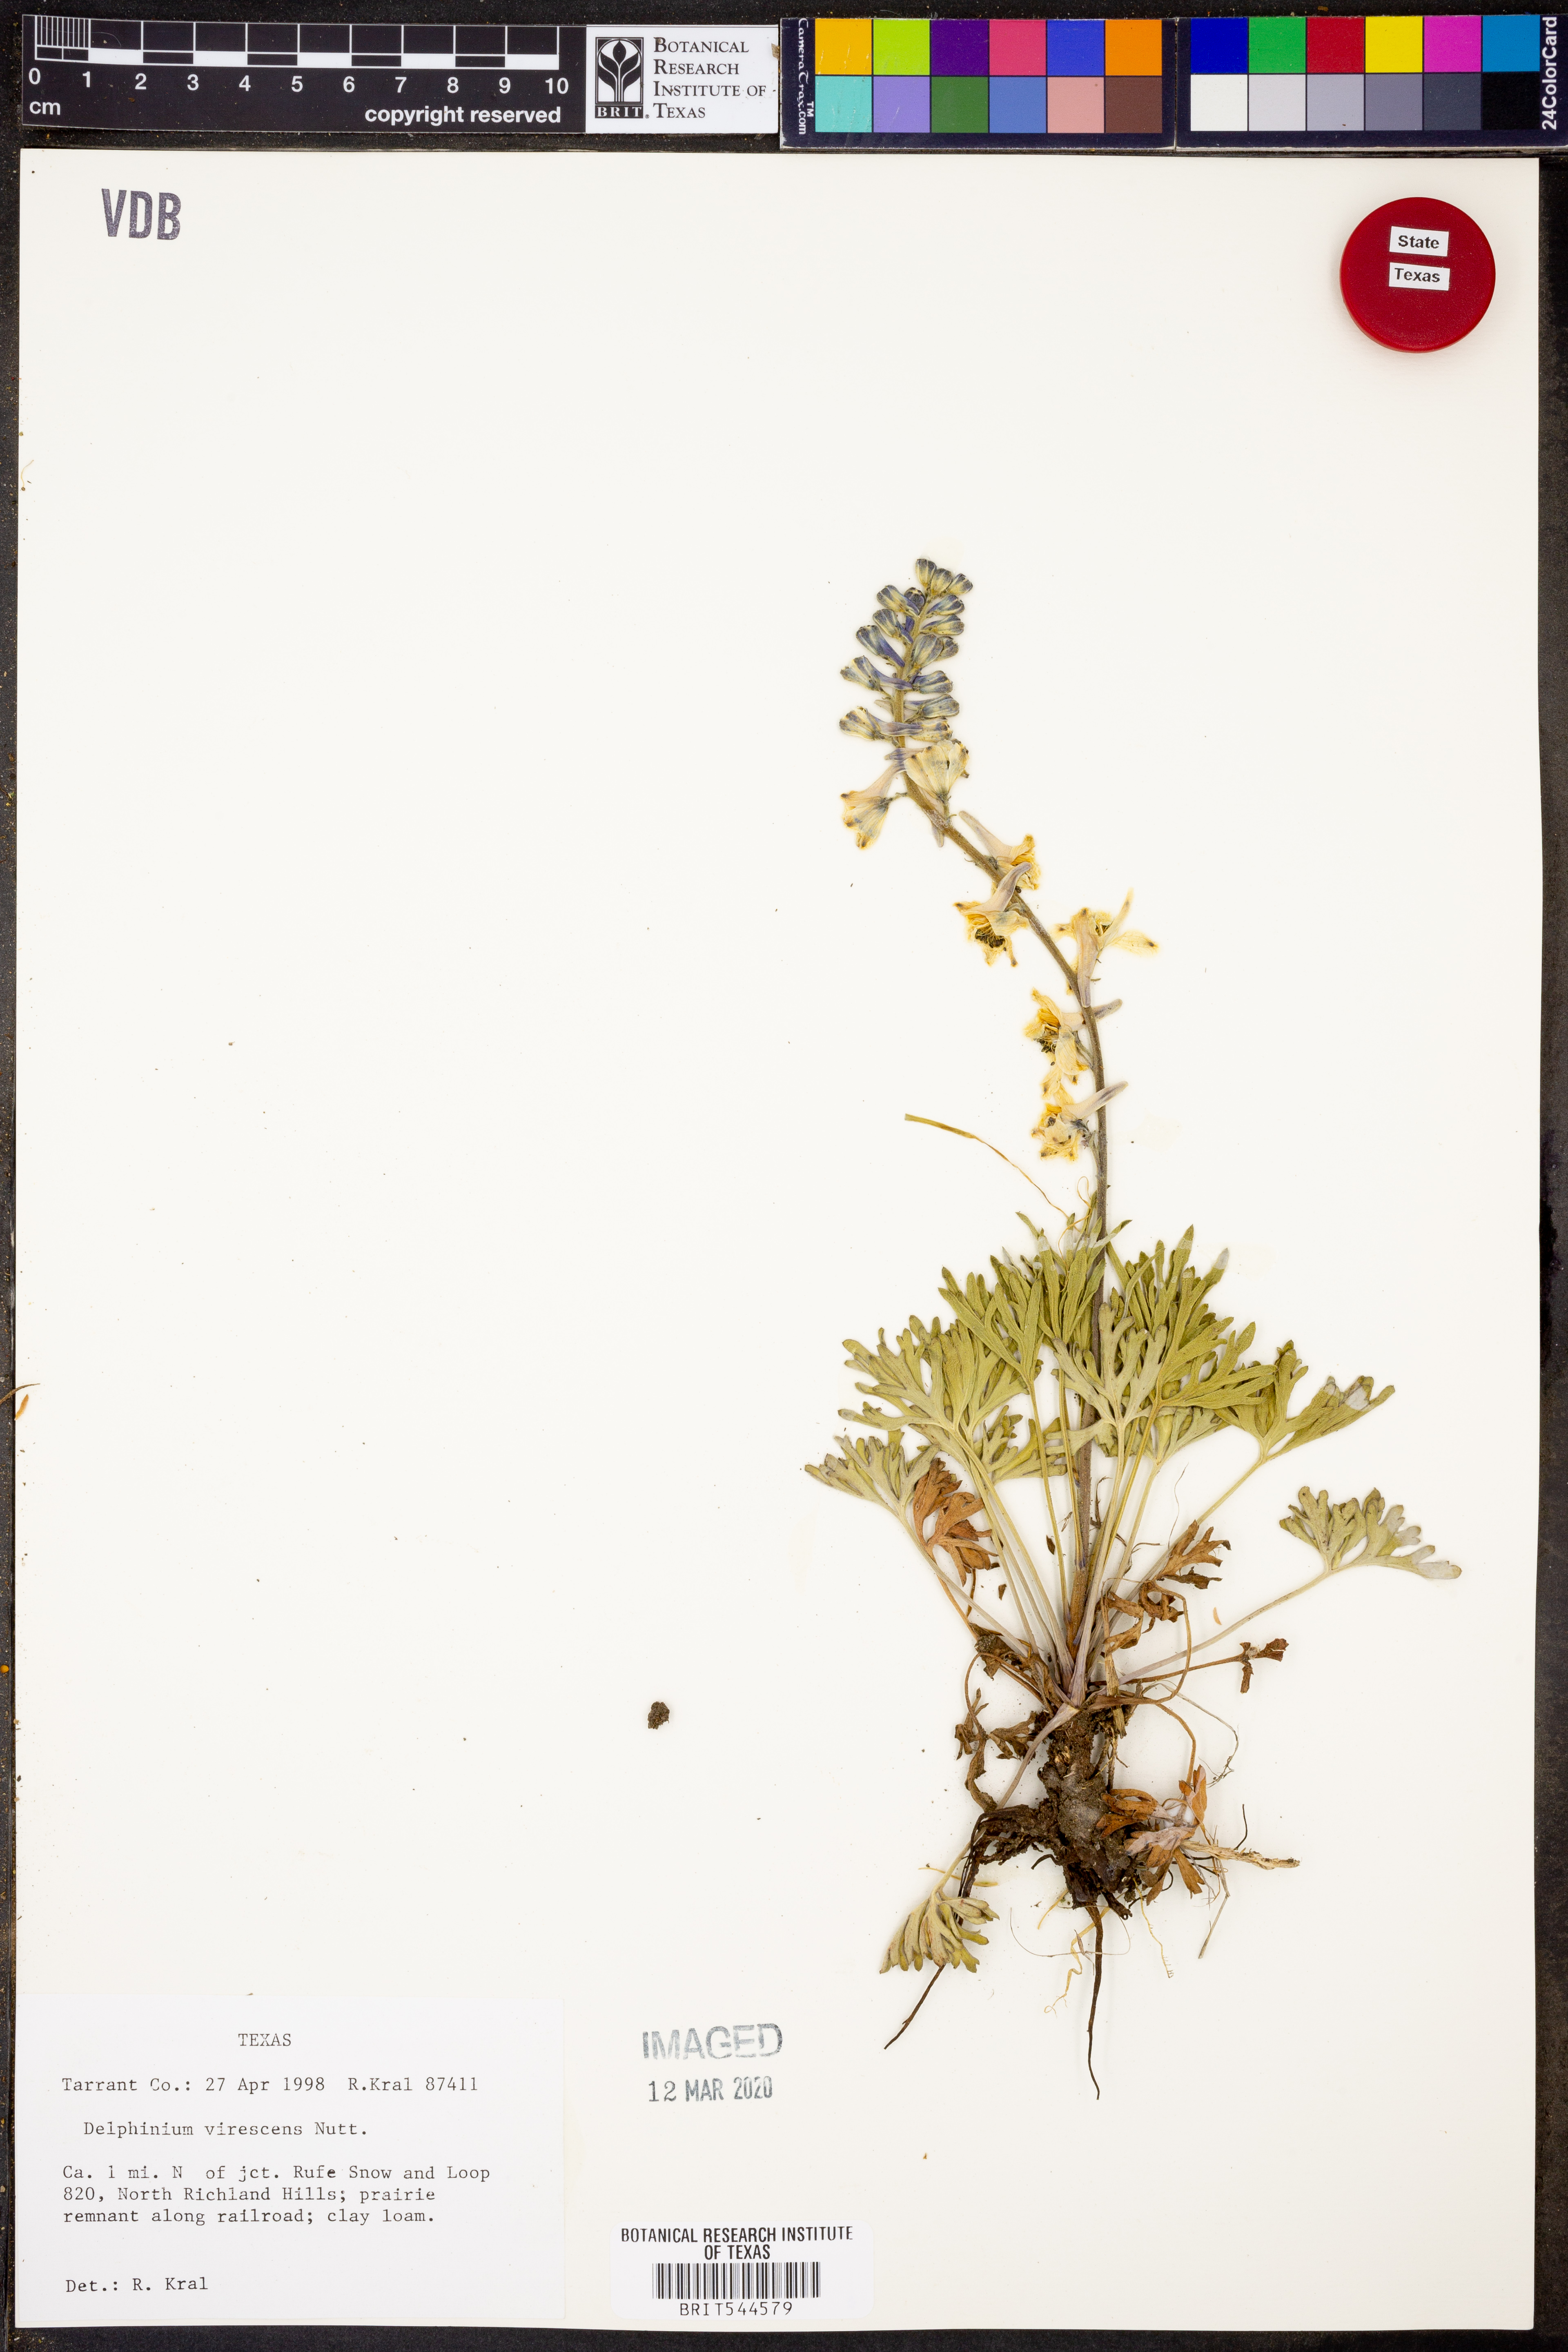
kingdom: Plantae
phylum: Tracheophyta
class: Magnoliopsida
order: Ranunculales
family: Ranunculaceae
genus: Delphinium
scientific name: Delphinium carolinianum
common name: Carolina larkspur
